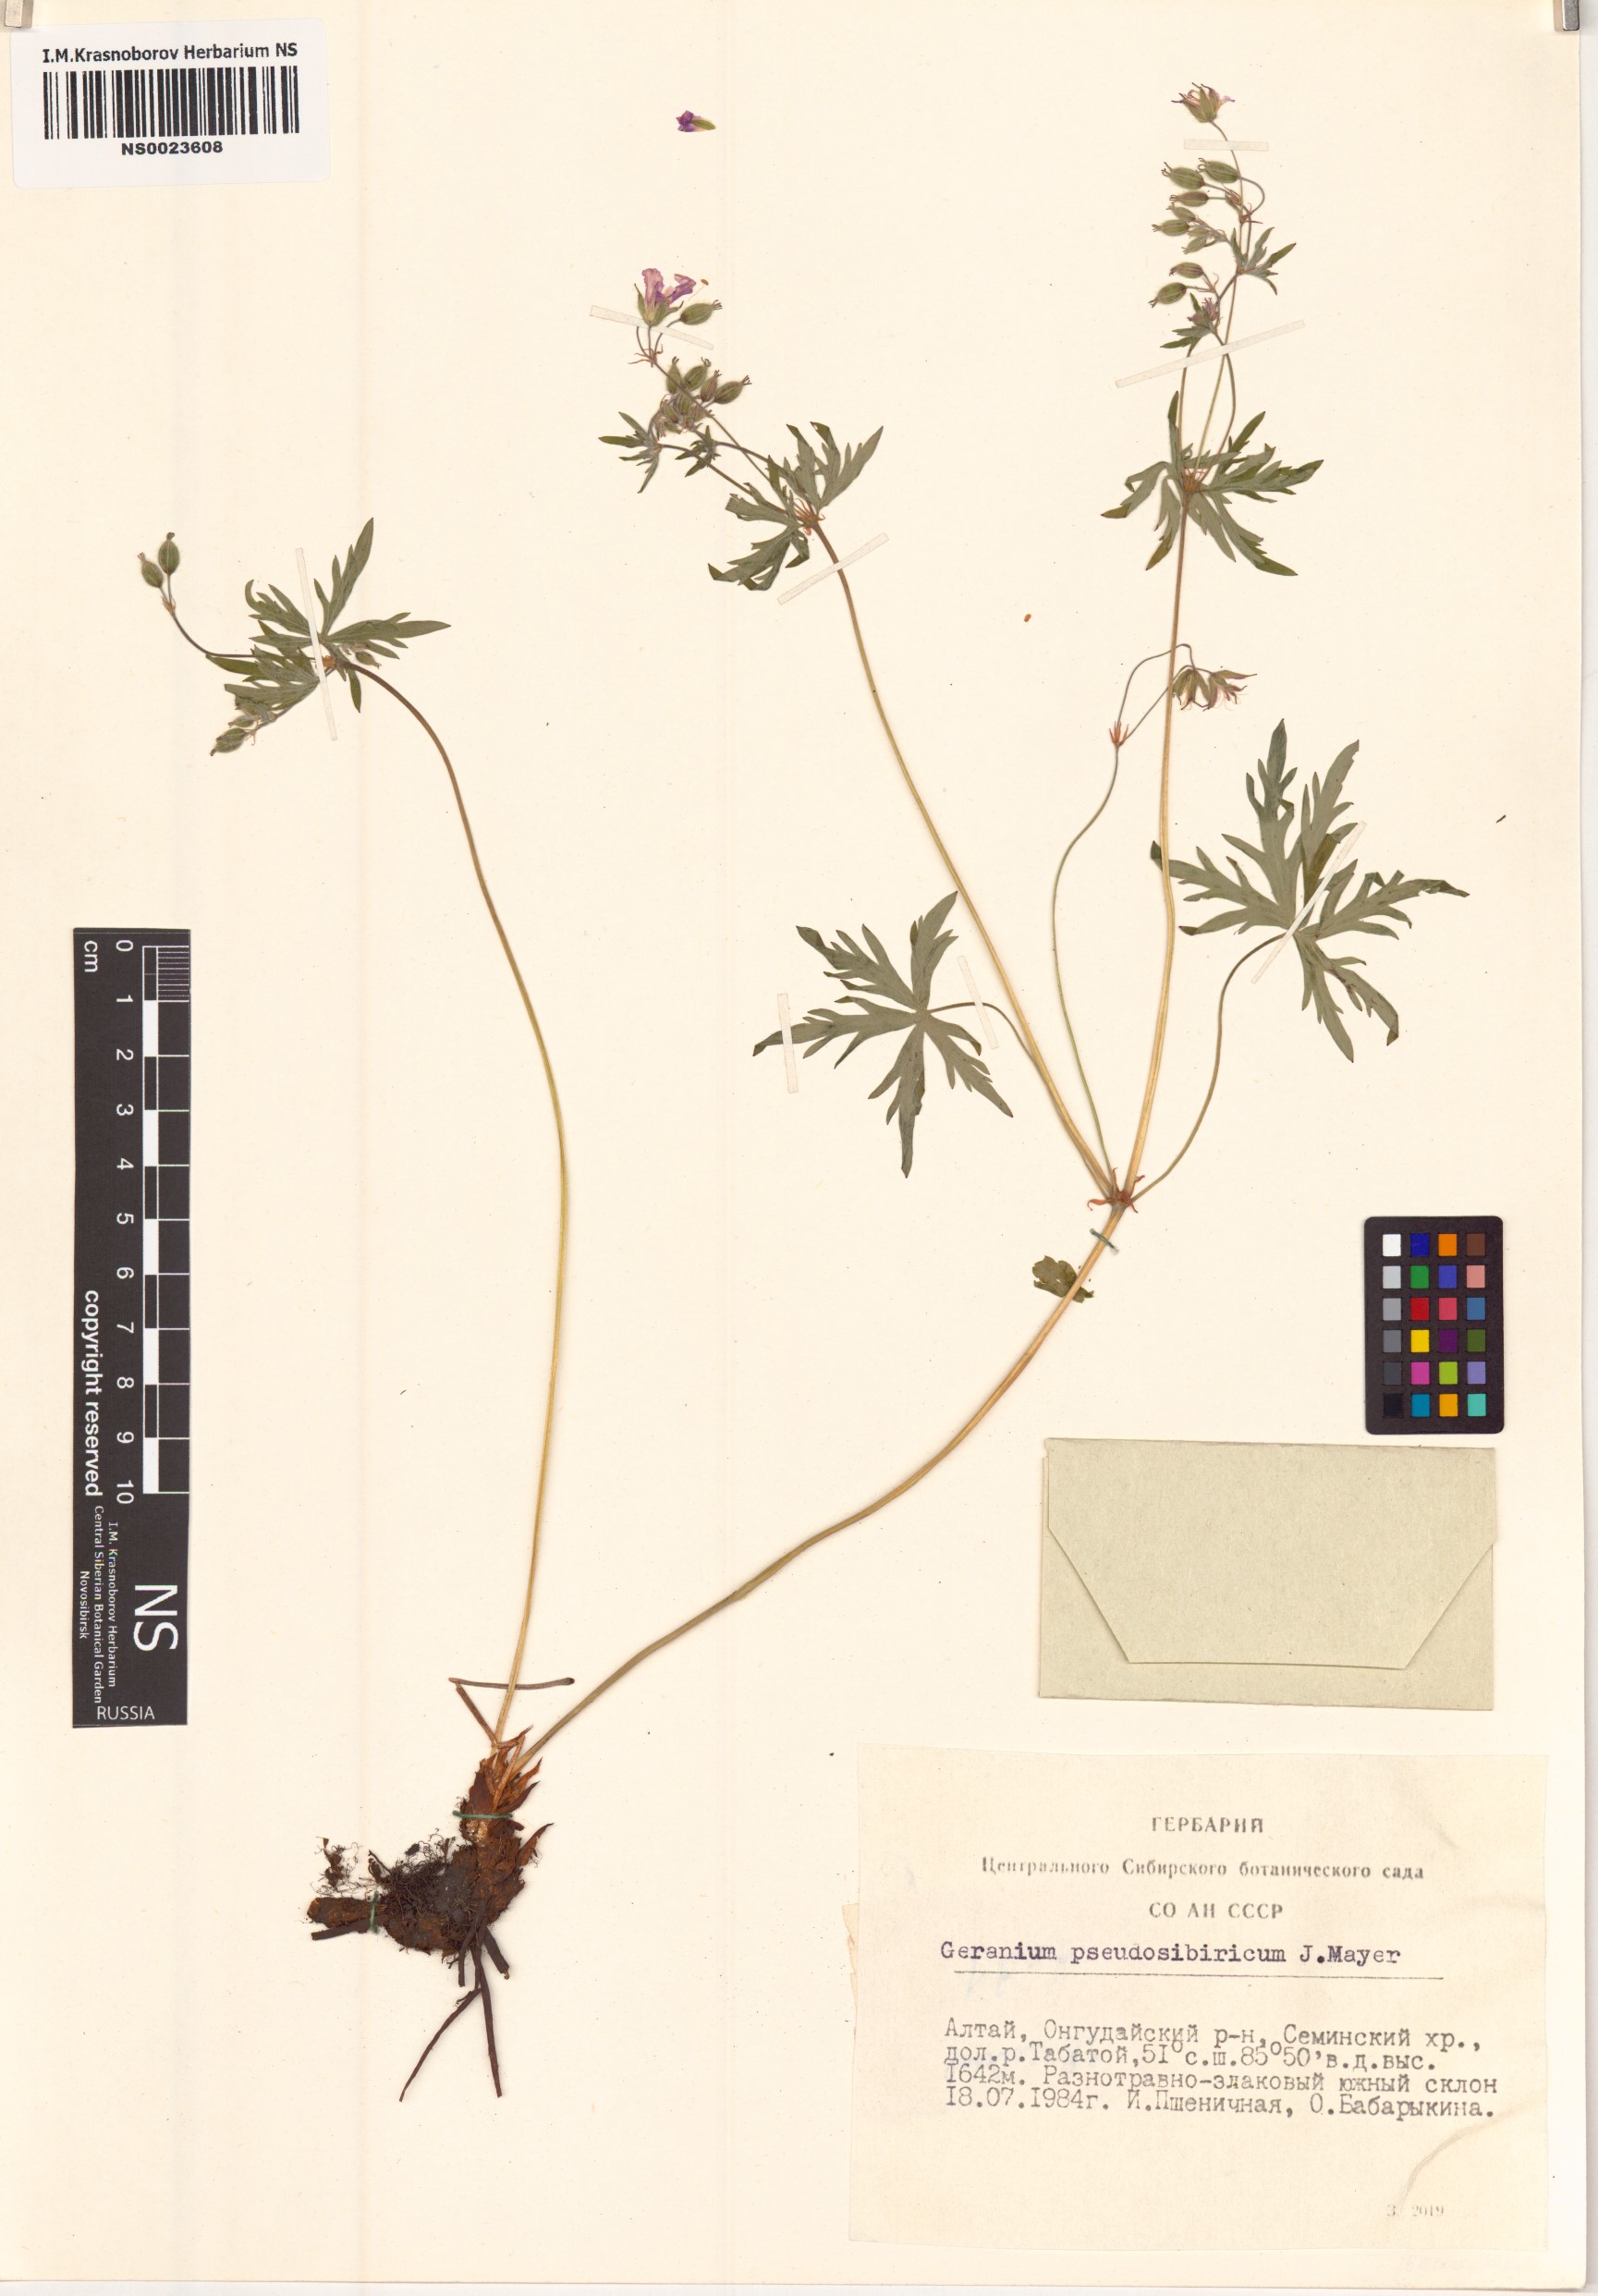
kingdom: Plantae
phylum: Tracheophyta
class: Magnoliopsida
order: Geraniales
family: Geraniaceae
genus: Geranium
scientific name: Geranium pseudosibiricum
